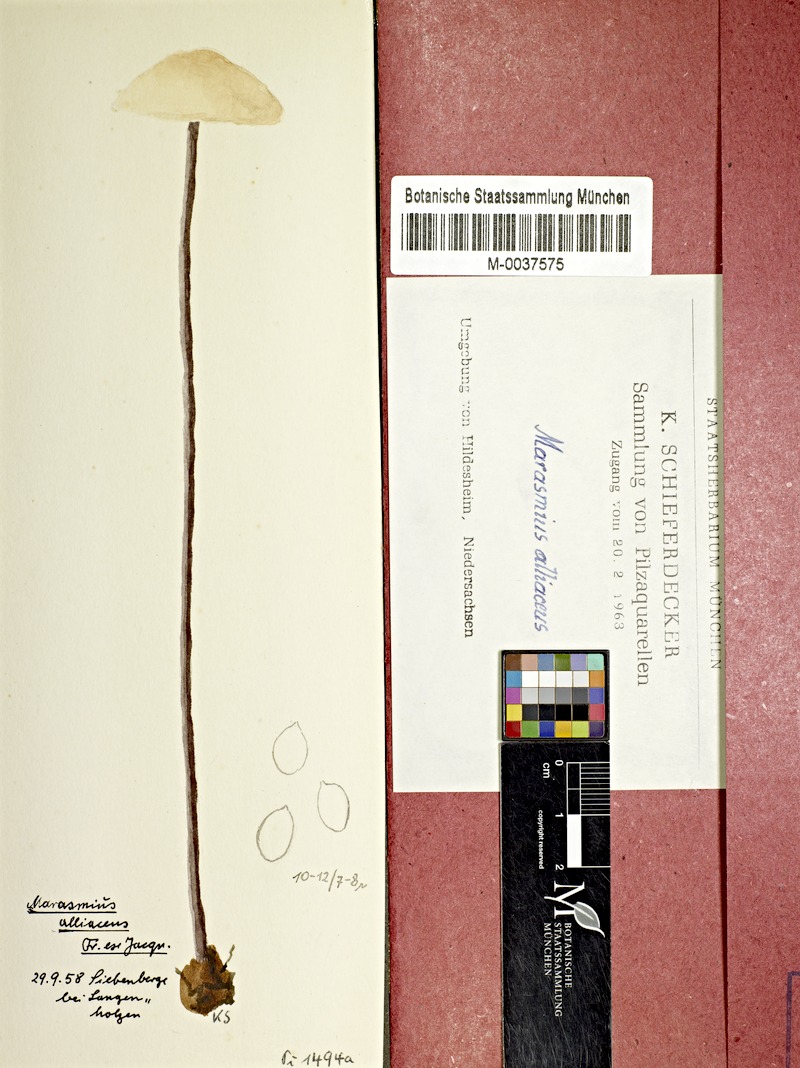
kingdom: Fungi
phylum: Basidiomycota
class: Agaricomycetes
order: Agaricales
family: Omphalotaceae
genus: Mycetinis
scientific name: Mycetinis alliaceus
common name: Garlic parachute
